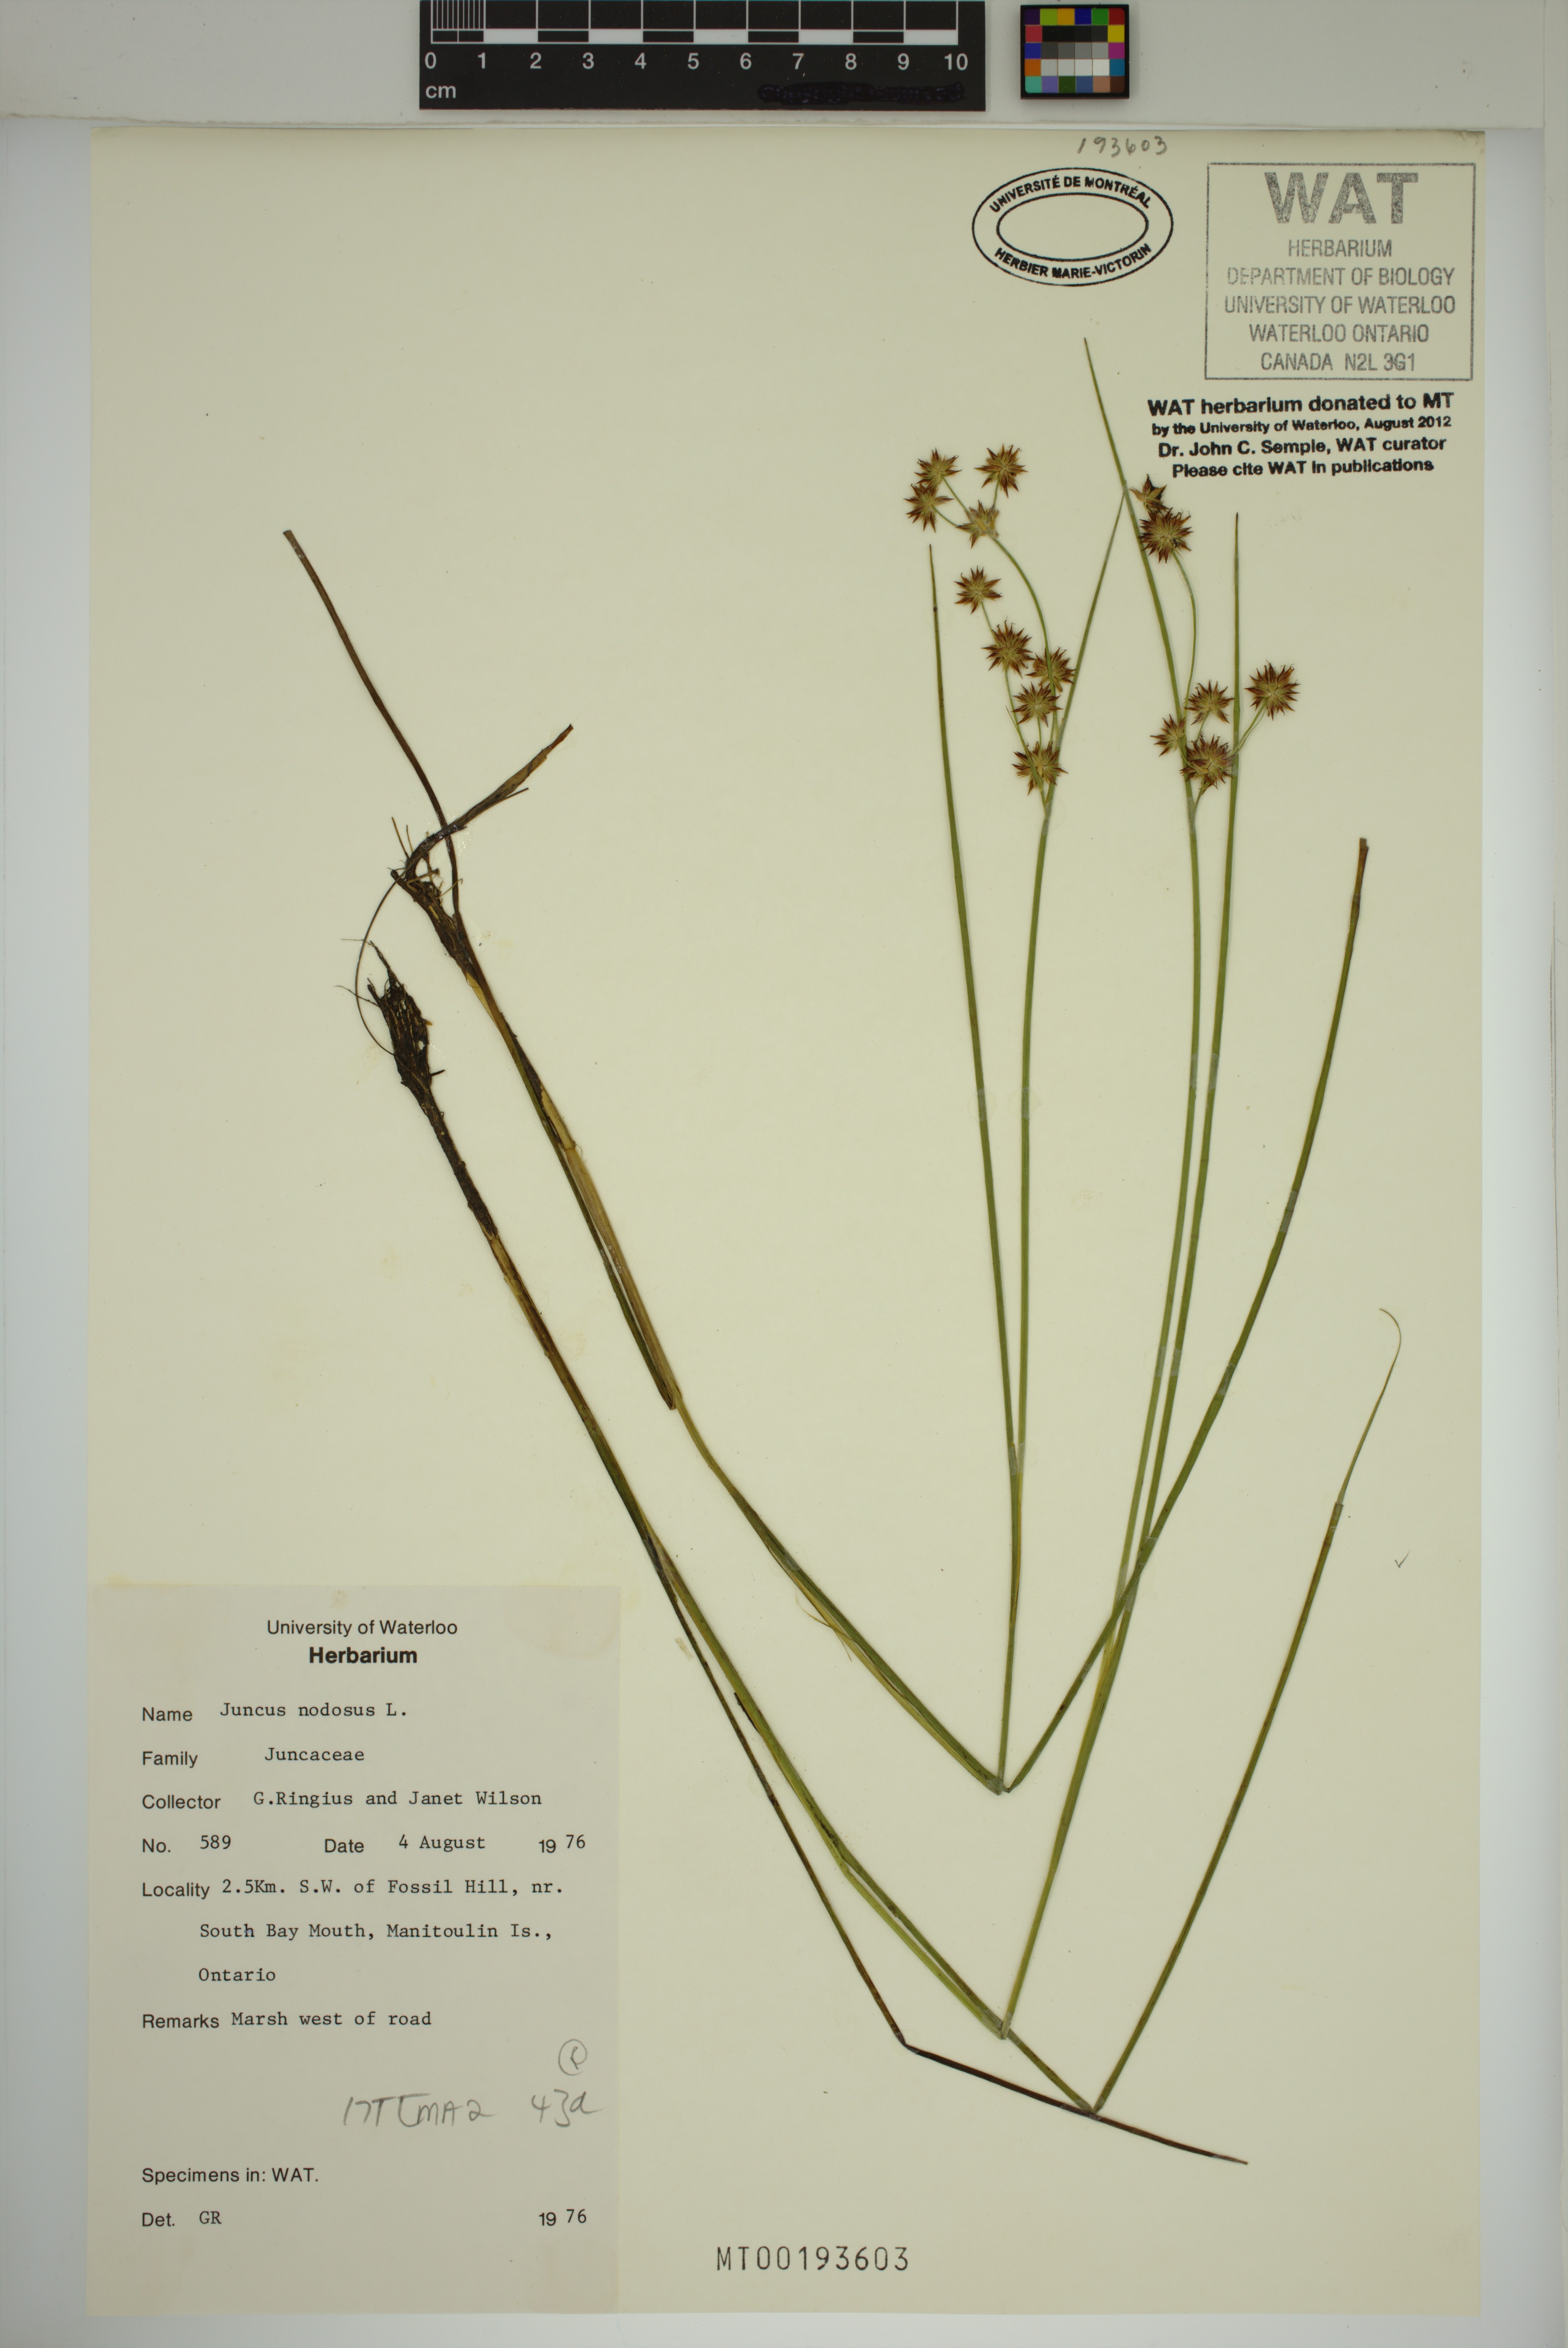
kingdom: Plantae
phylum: Tracheophyta
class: Liliopsida
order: Poales
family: Juncaceae
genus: Juncus
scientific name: Juncus nodosus
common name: Knotted rush
